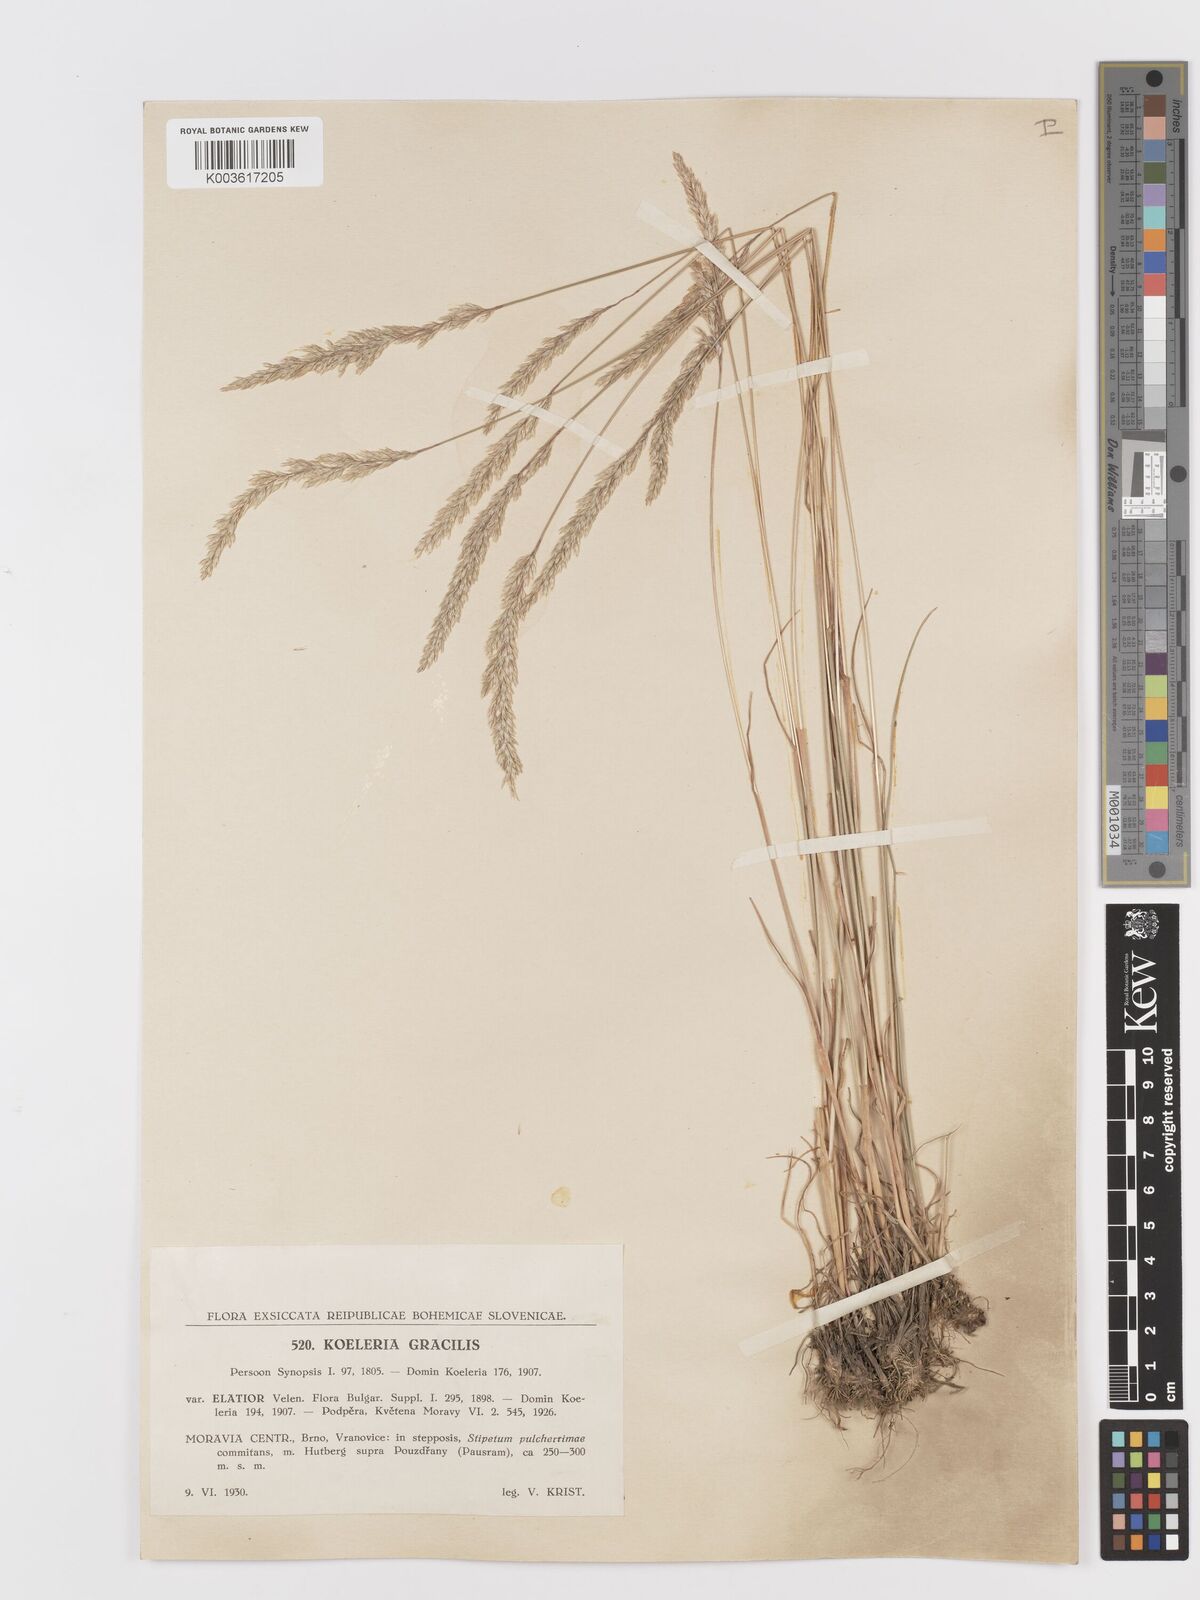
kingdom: Plantae
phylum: Tracheophyta
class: Liliopsida
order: Poales
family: Poaceae
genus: Koeleria
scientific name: Koeleria macrantha
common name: Crested hair-grass
